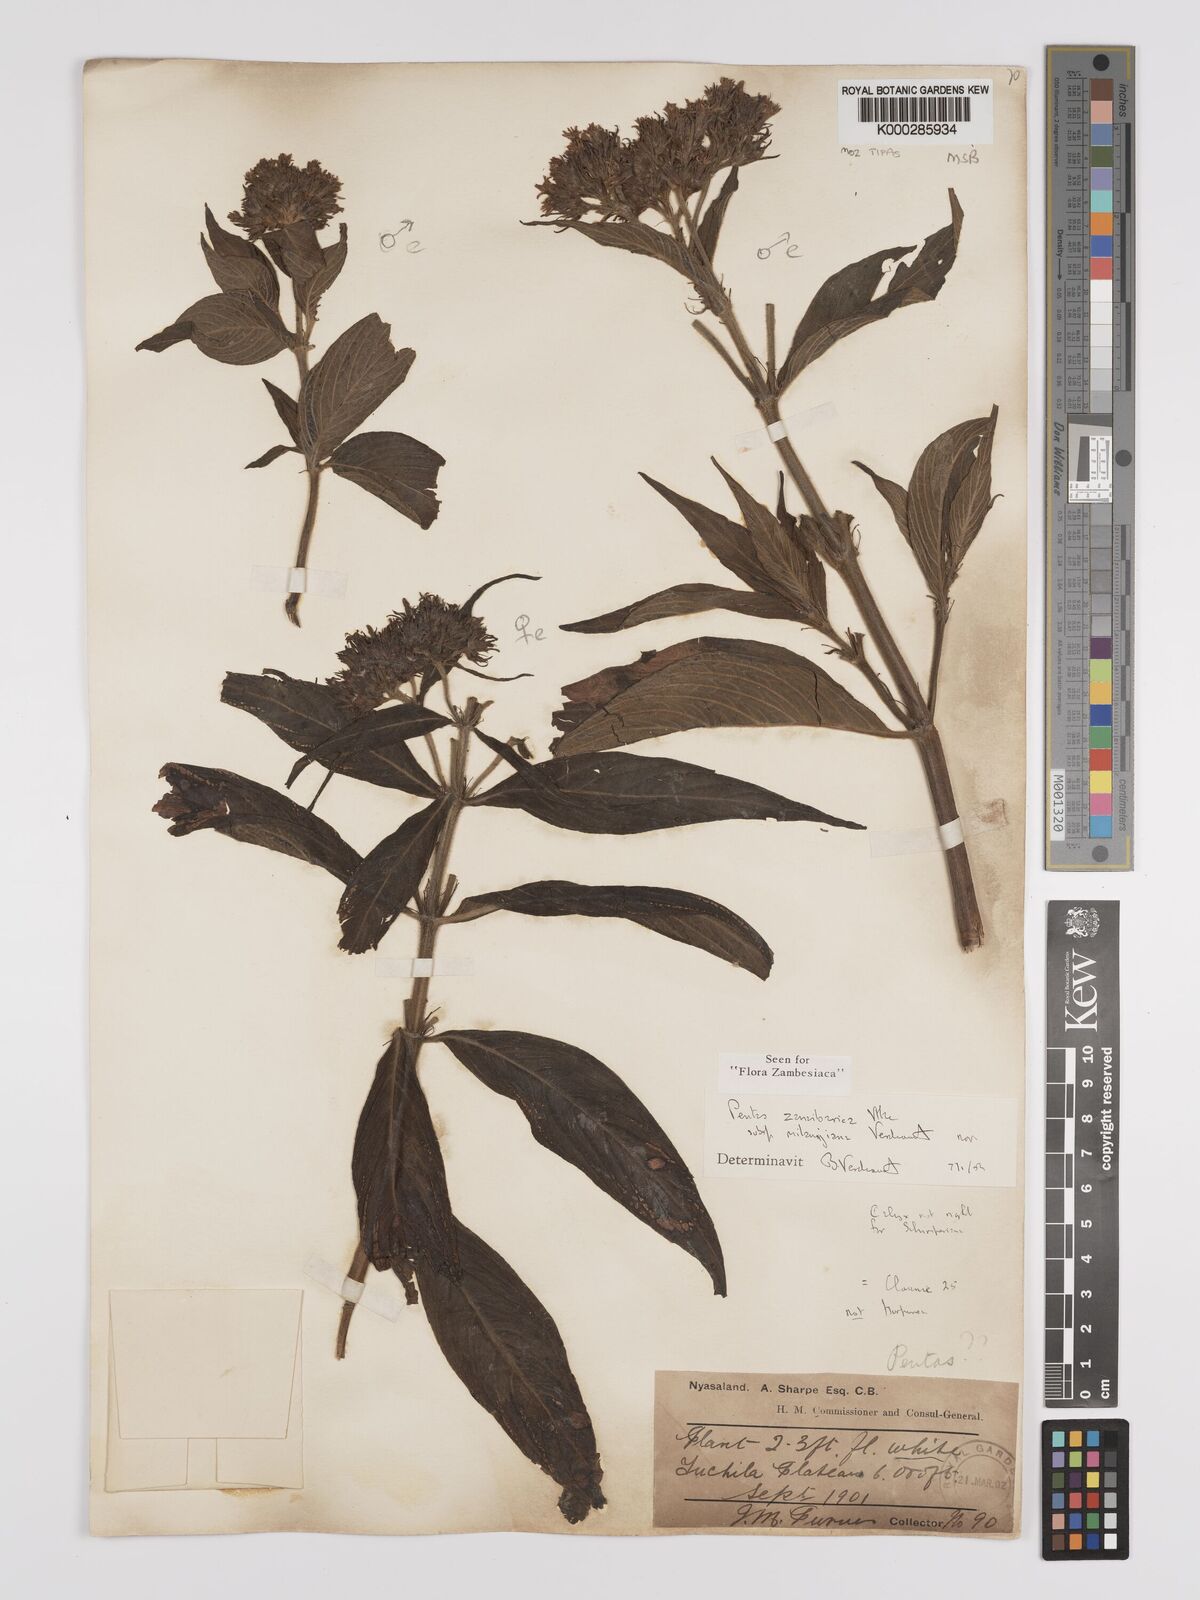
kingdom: Plantae
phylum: Tracheophyta
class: Magnoliopsida
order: Gentianales
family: Rubiaceae
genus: Pentas
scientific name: Pentas zanzibarica
